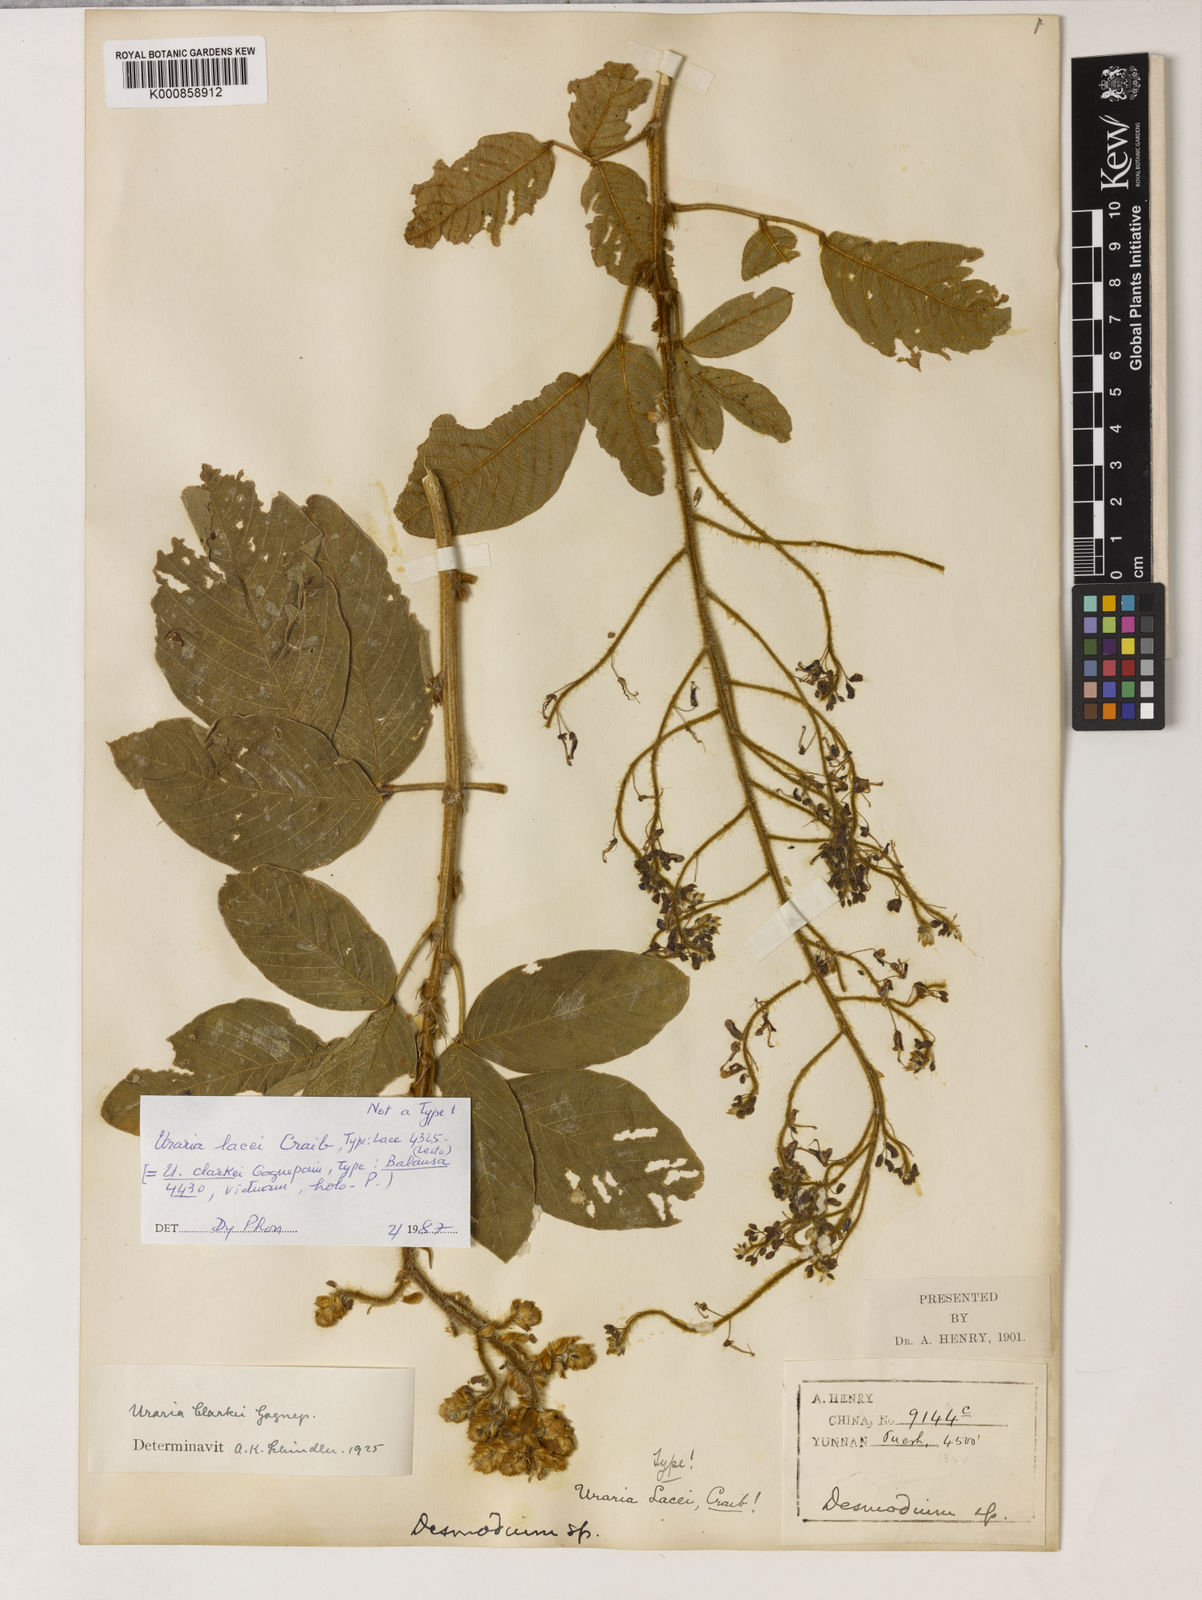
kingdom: Plantae
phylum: Tracheophyta
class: Magnoliopsida
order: Fabales
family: Fabaceae
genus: Uraria
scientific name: Uraria lacei
